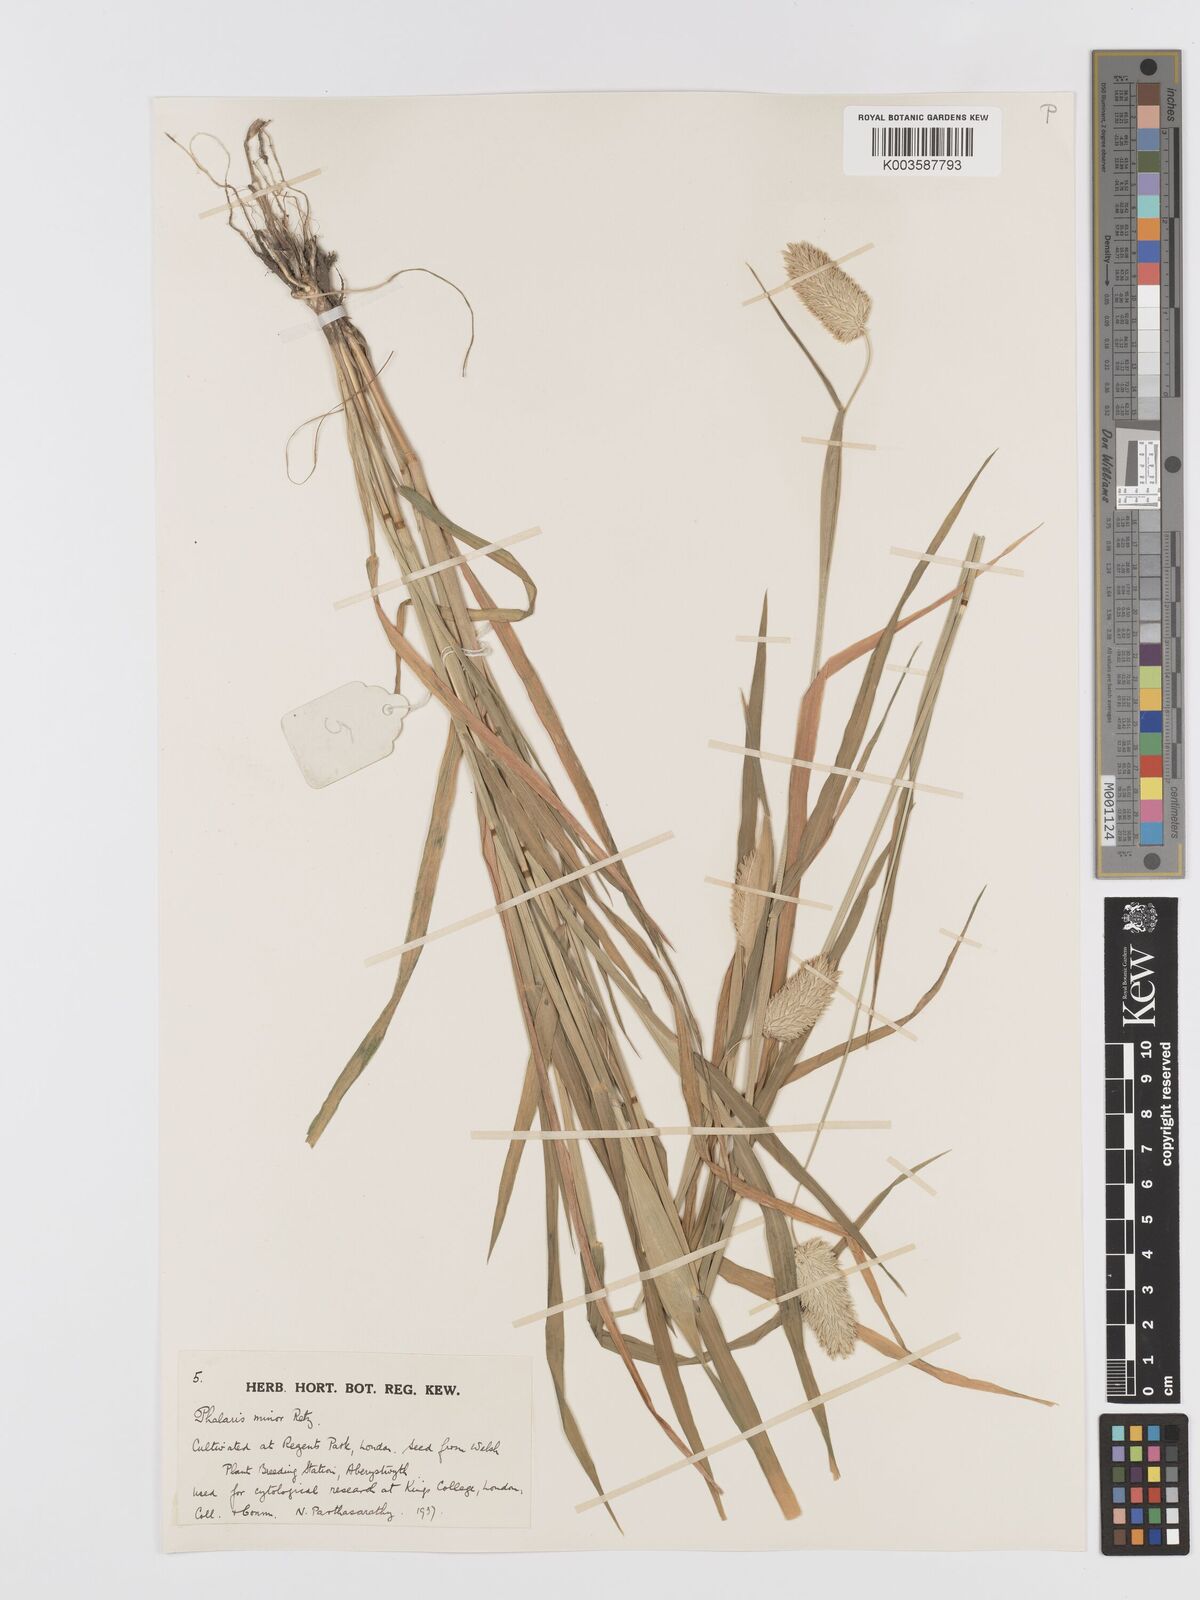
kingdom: Plantae
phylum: Tracheophyta
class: Liliopsida
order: Poales
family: Poaceae
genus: Phalaris
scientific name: Phalaris minor
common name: Littleseed canarygrass
